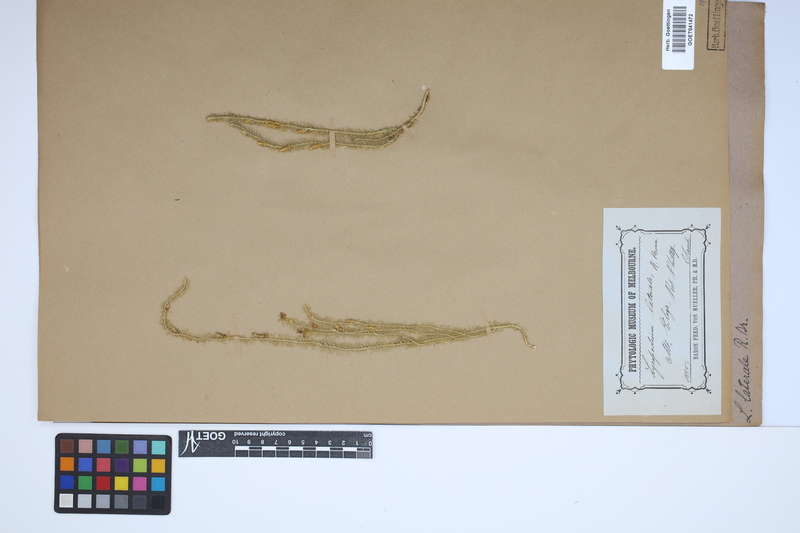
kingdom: Plantae
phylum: Tracheophyta
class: Lycopodiopsida
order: Lycopodiales
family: Lycopodiaceae
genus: Lateristachys
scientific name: Lateristachys lateralis
